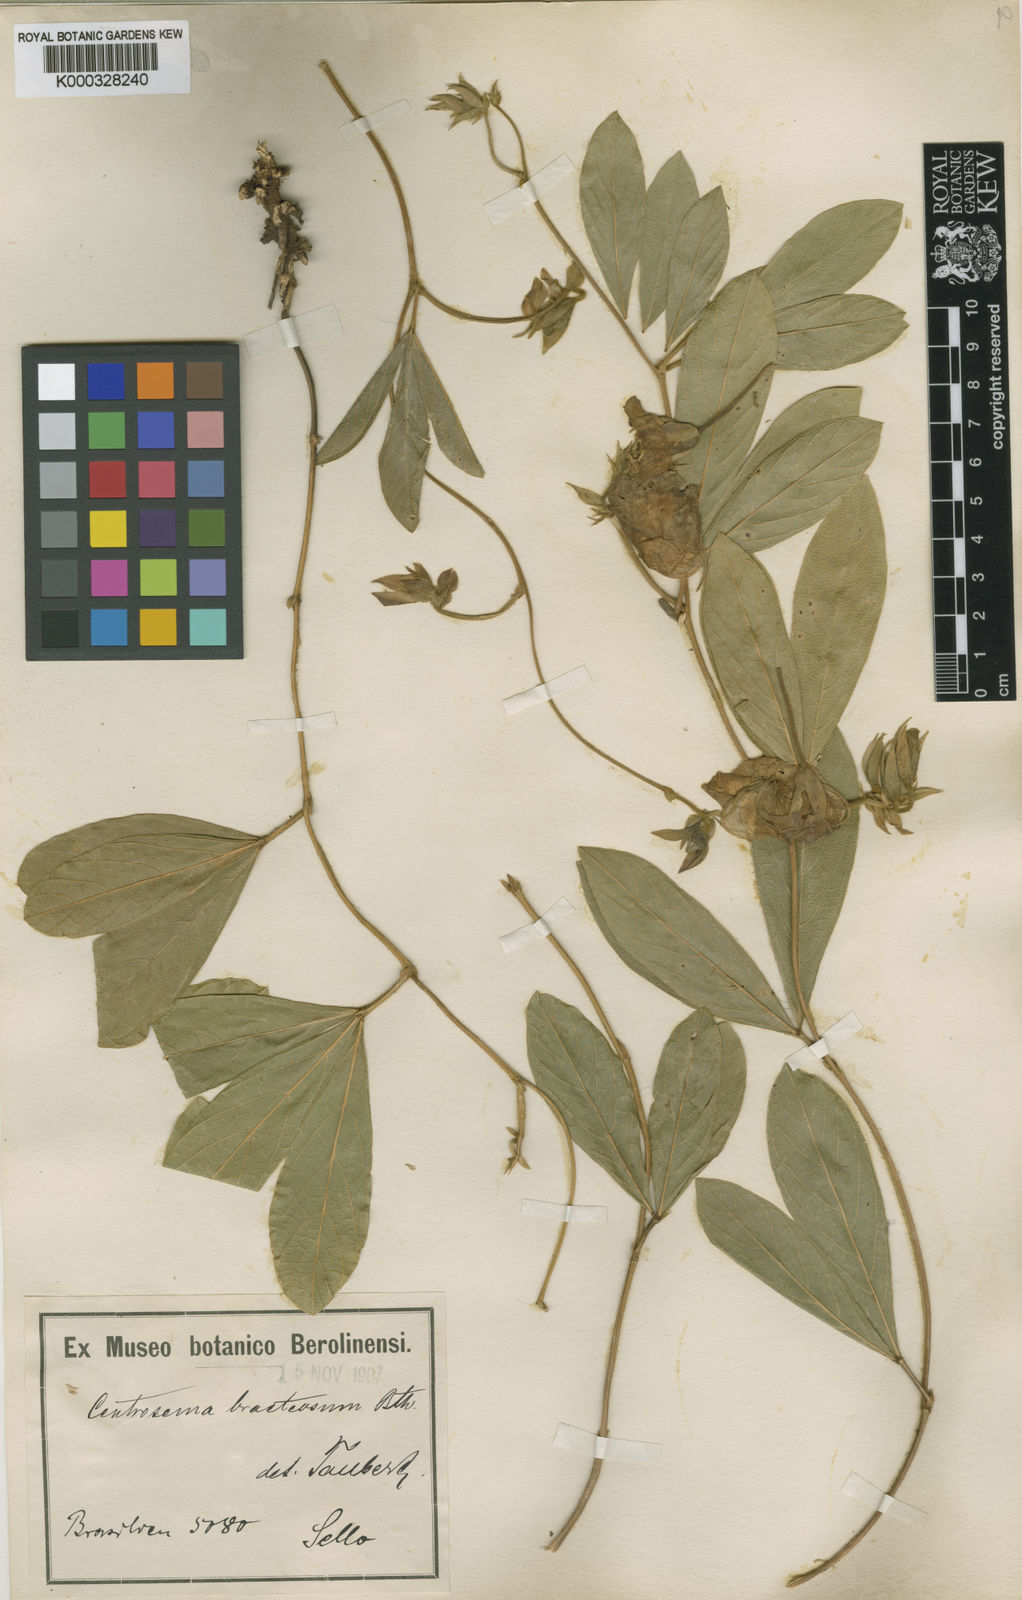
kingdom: Plantae
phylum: Tracheophyta
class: Magnoliopsida
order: Fabales
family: Fabaceae
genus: Centrosema
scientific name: Centrosema bracteosum
